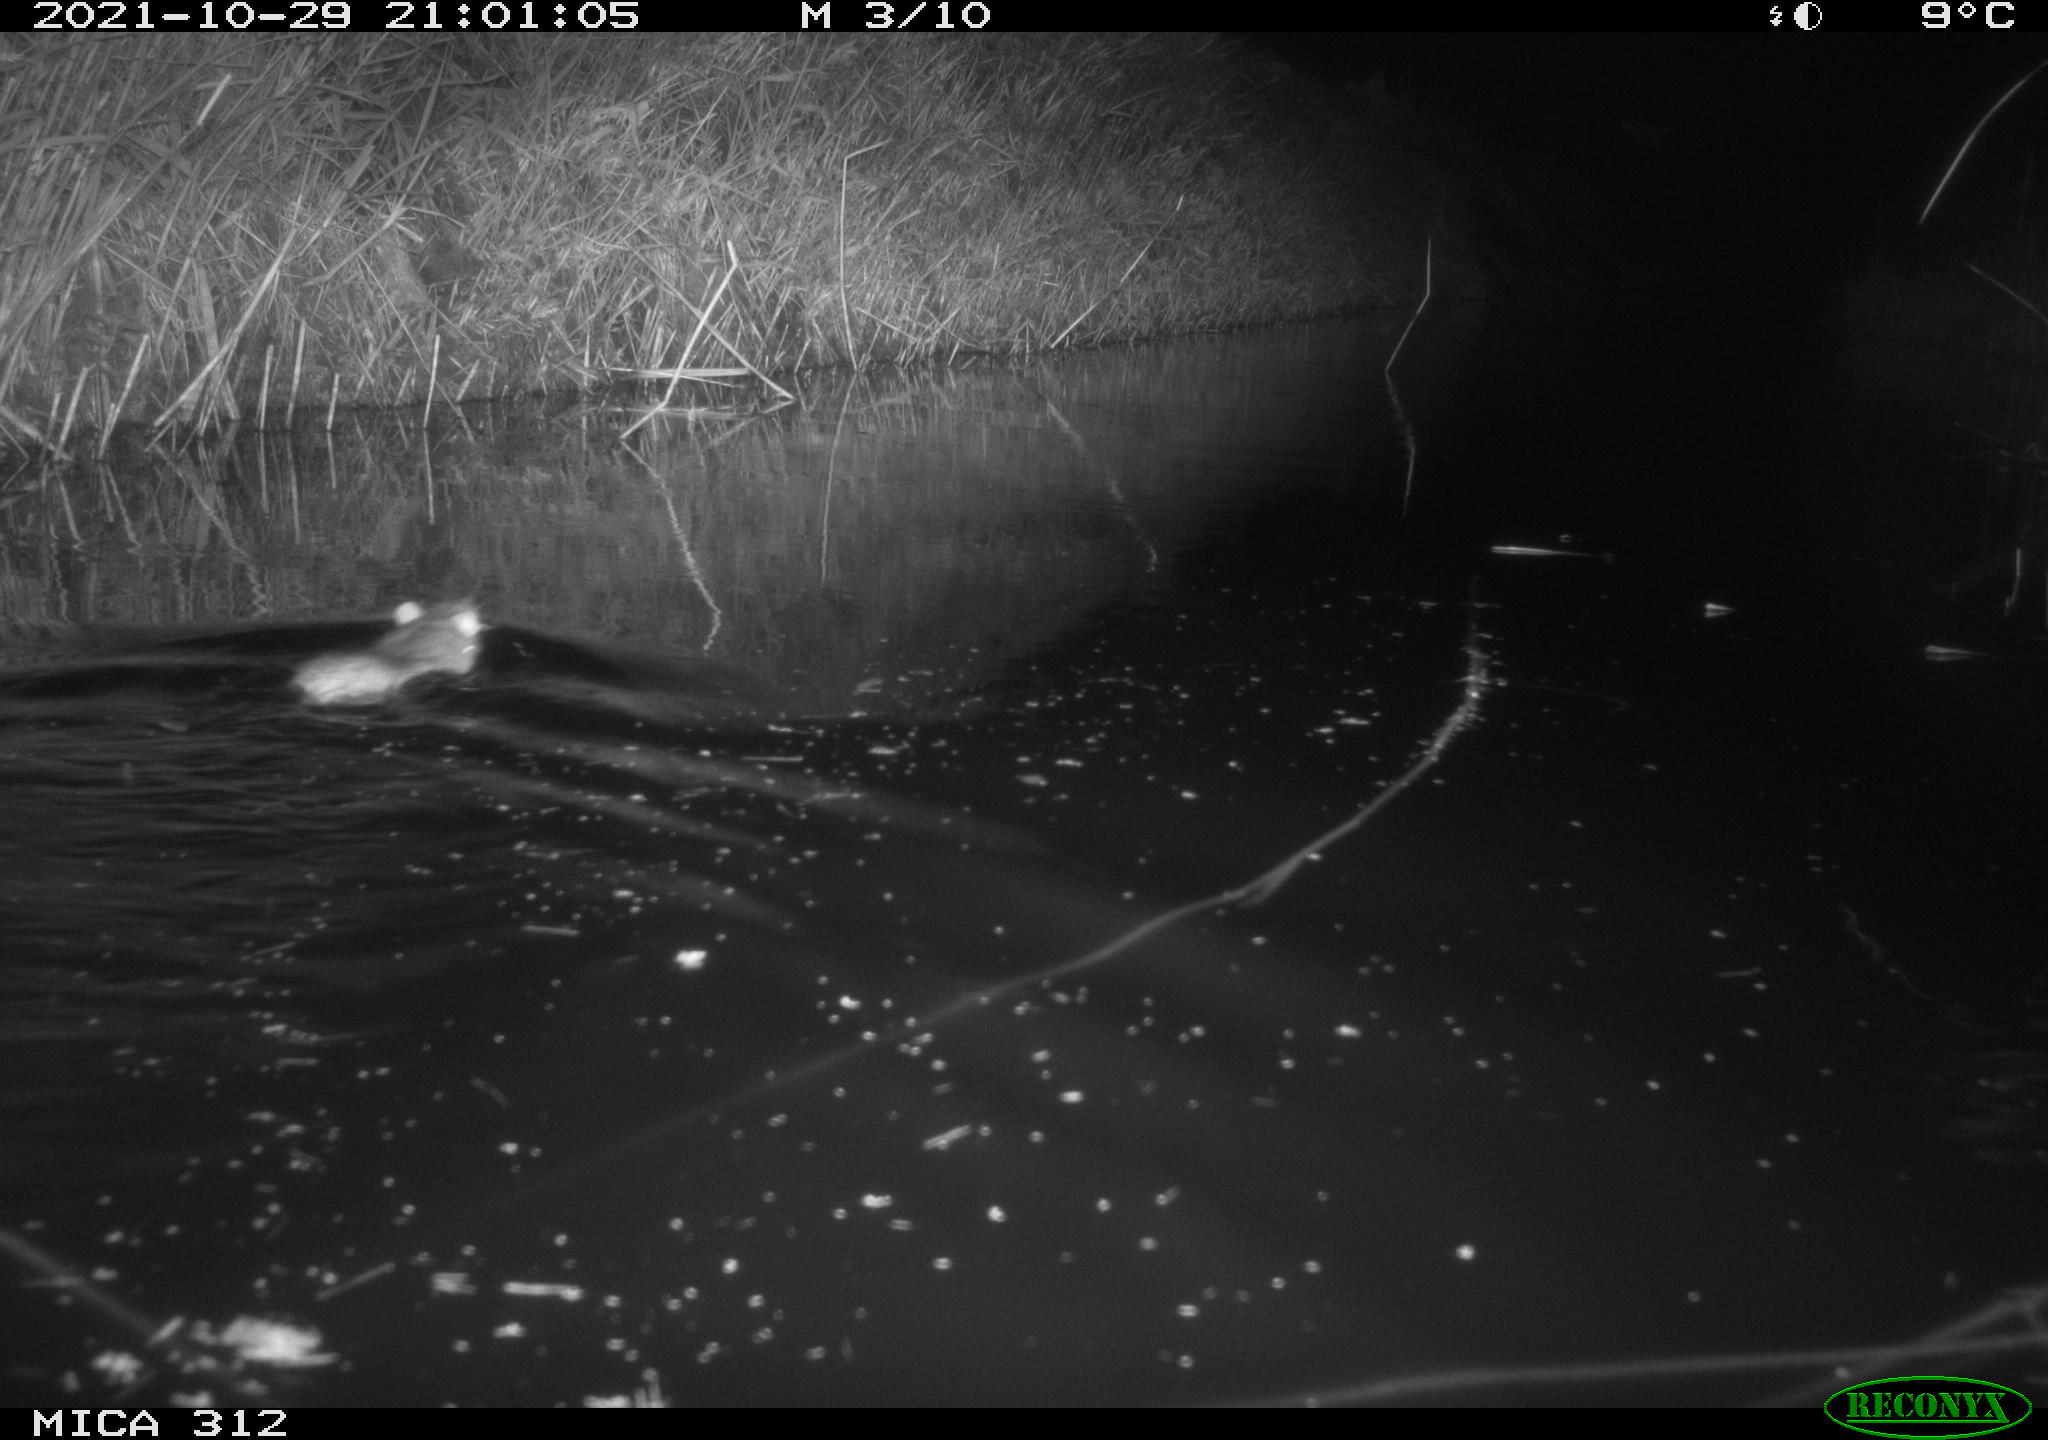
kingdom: Animalia
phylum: Chordata
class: Mammalia
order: Rodentia
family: Muridae
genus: Rattus
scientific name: Rattus norvegicus
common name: Brown rat
